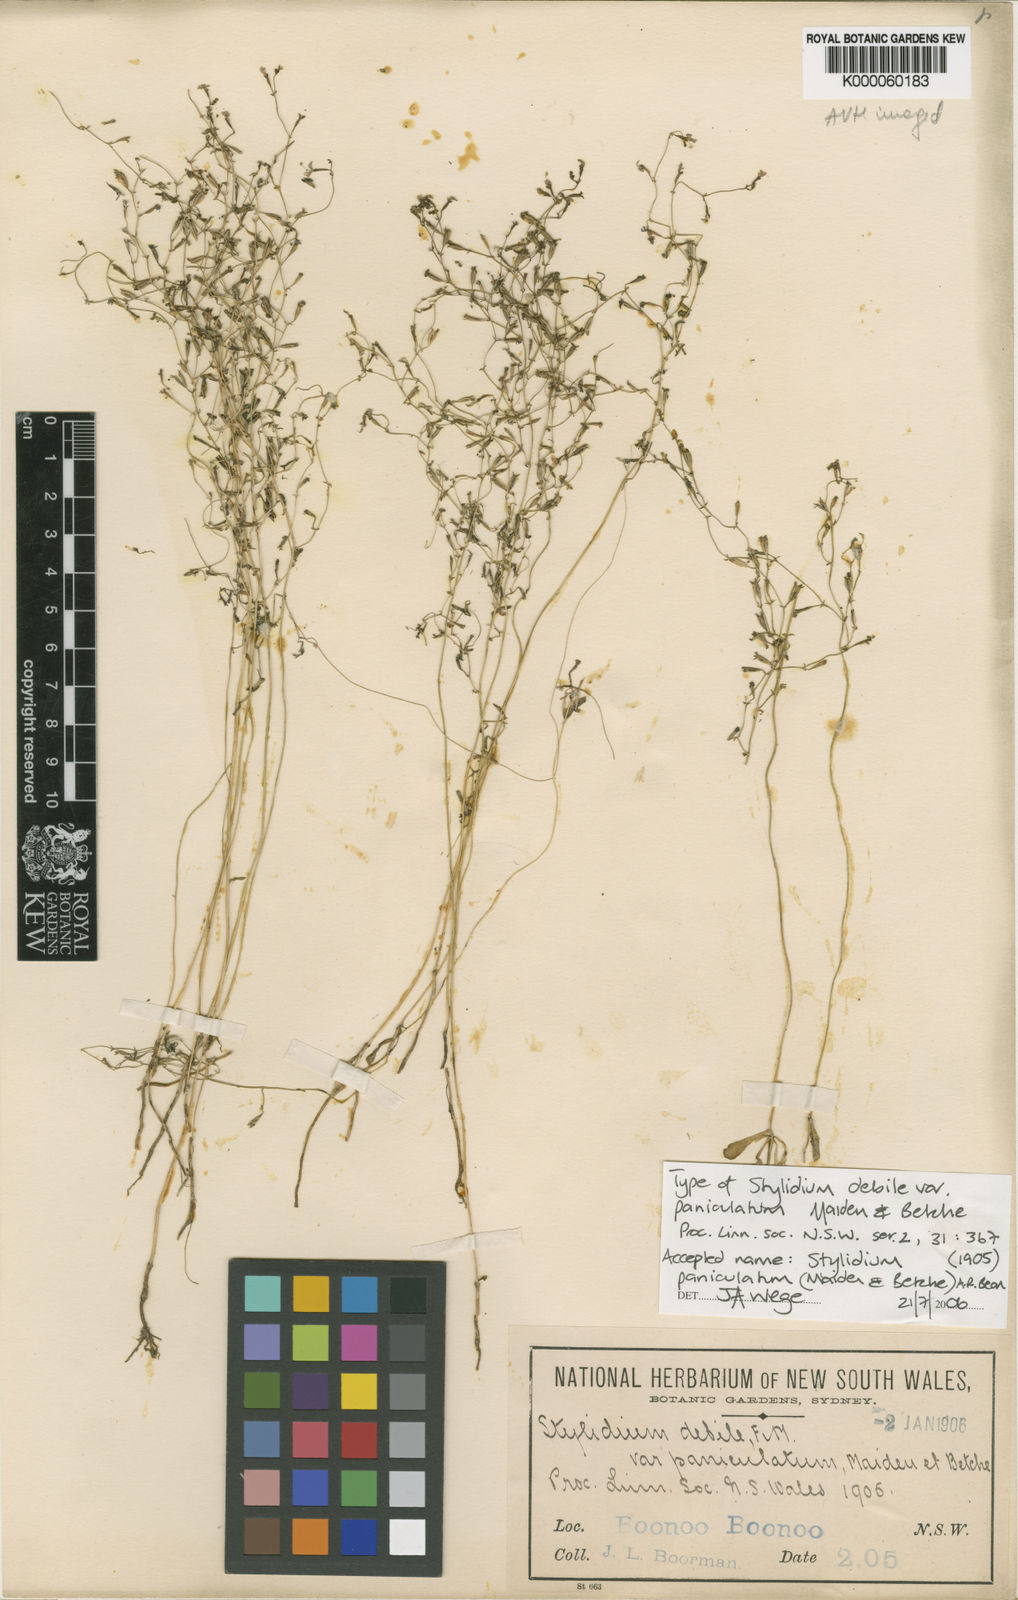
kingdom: Plantae
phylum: Tracheophyta
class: Magnoliopsida
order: Asterales
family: Stylidiaceae
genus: Stylidium
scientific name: Stylidium paniculatum
